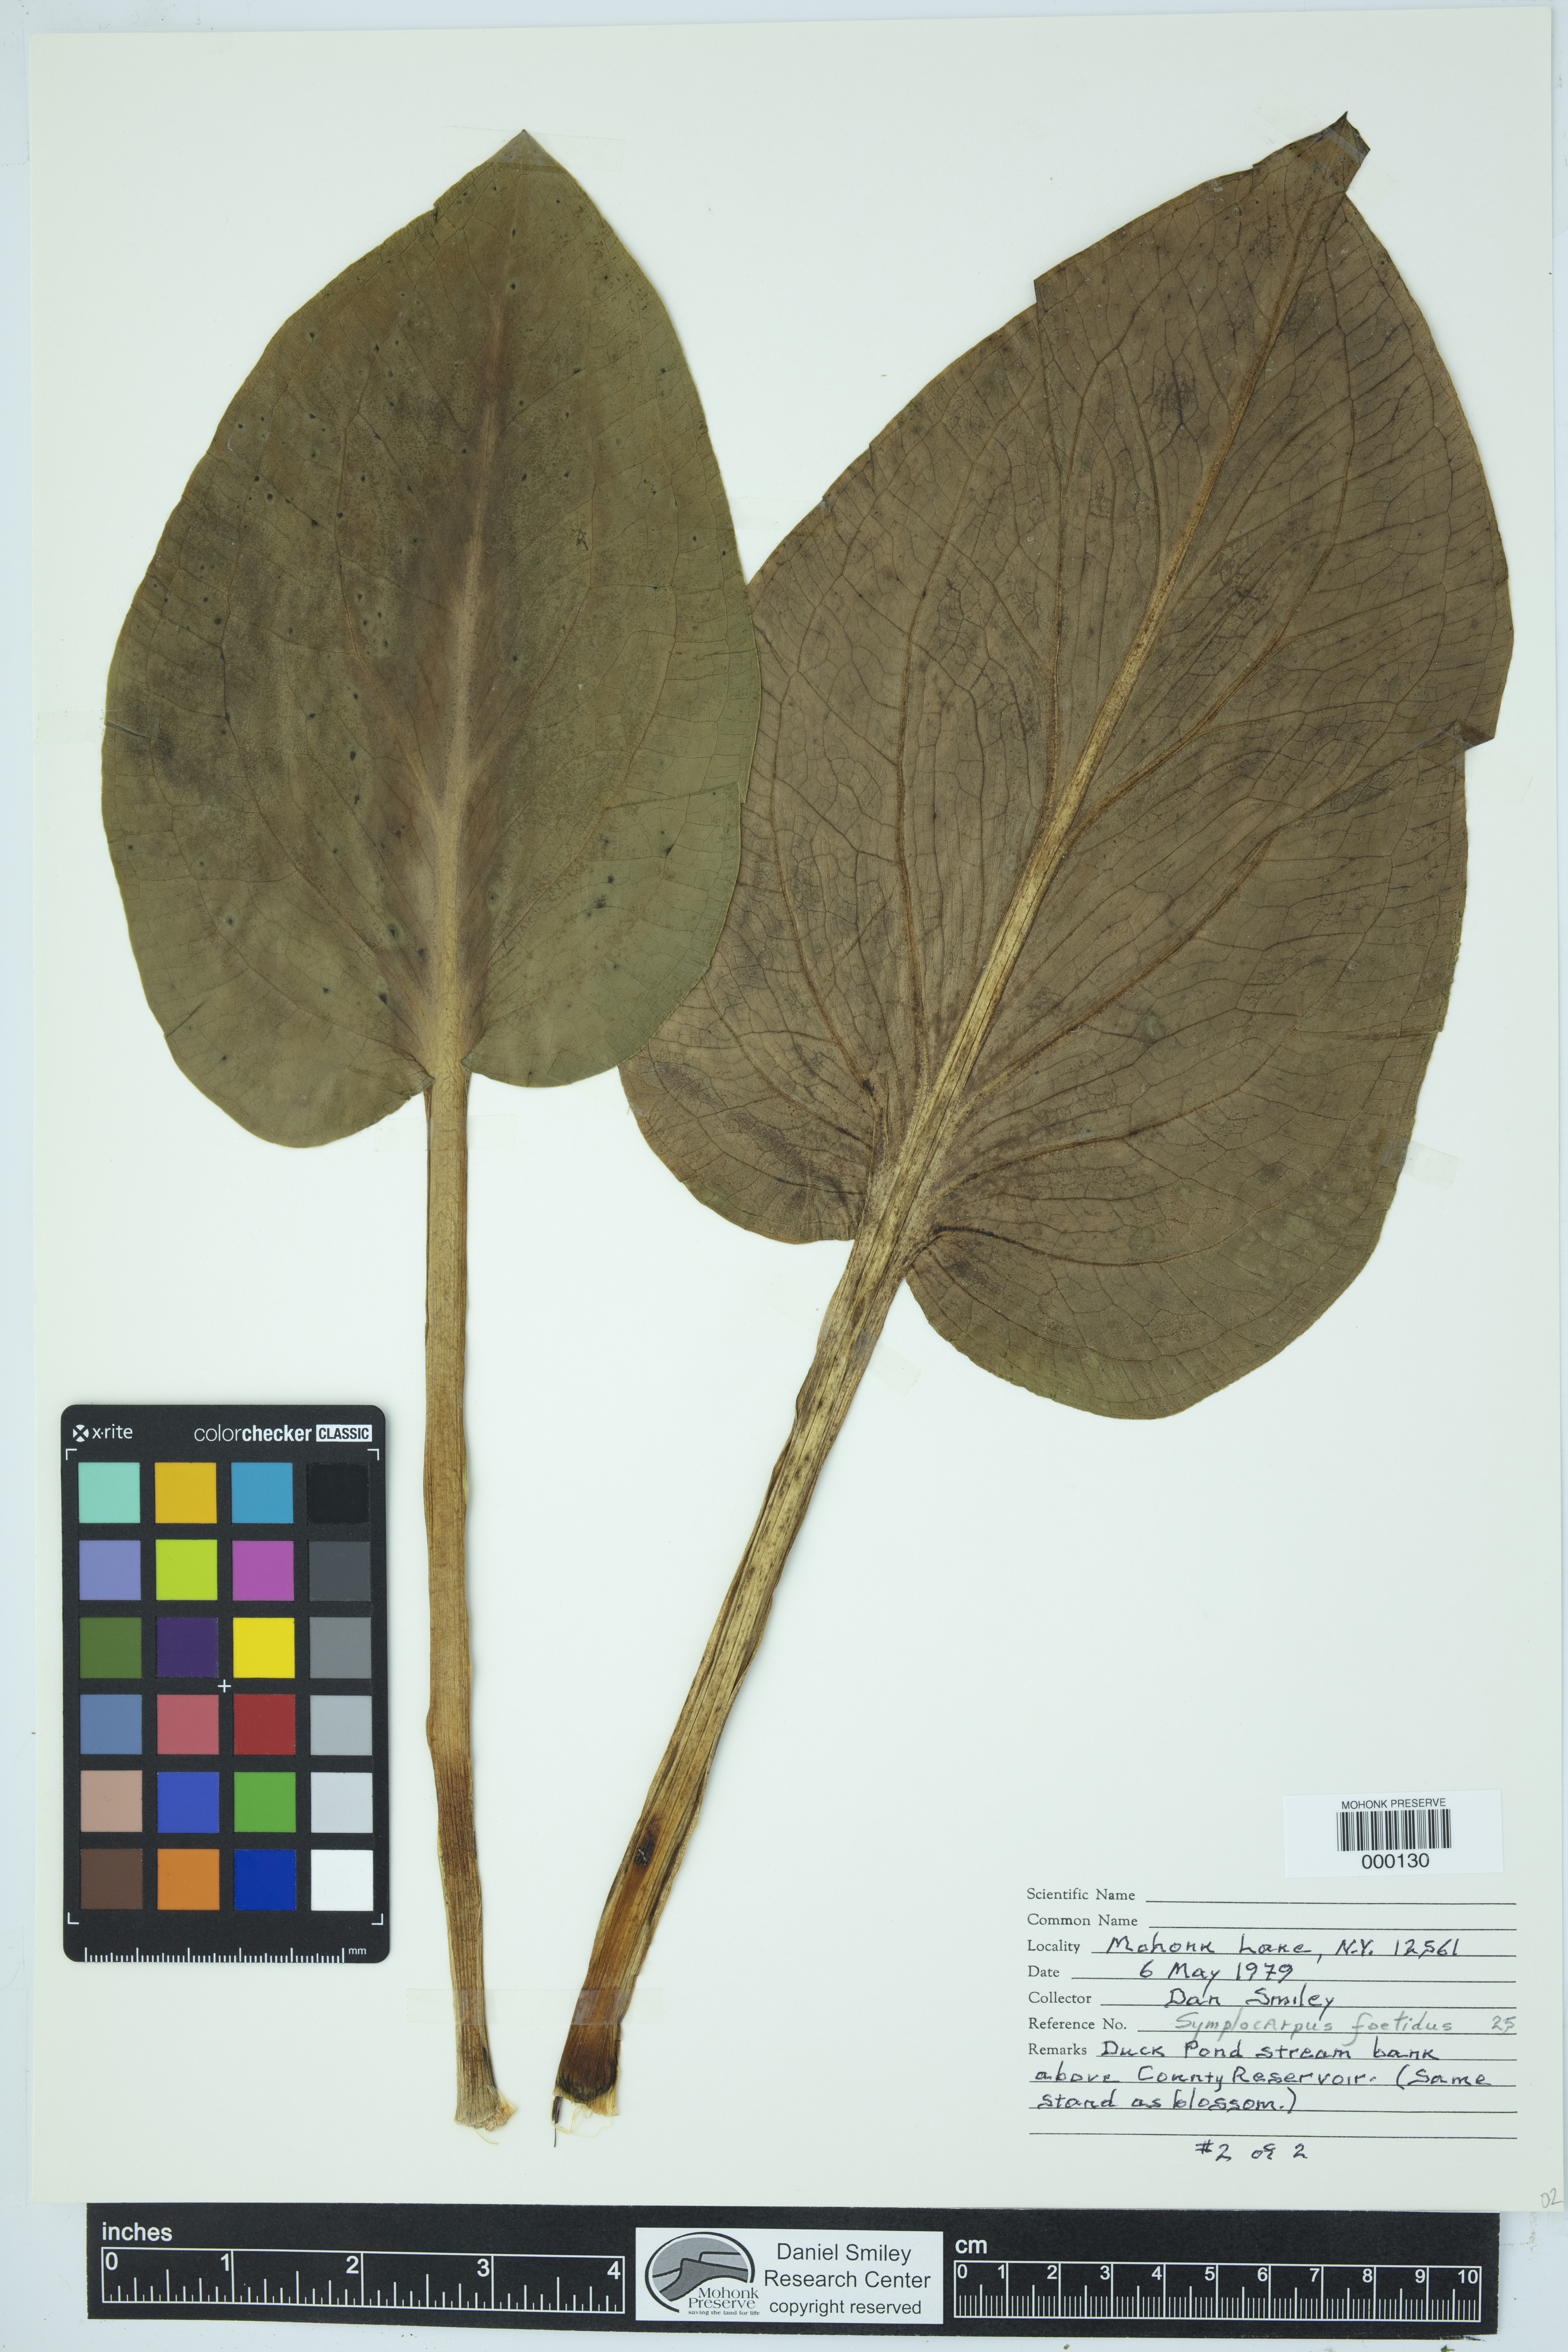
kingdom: Plantae
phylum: Tracheophyta
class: Liliopsida
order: Alismatales
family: Araceae
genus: Symplocarpus
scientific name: Symplocarpus foetidus
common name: Eastern skunk cabbage
